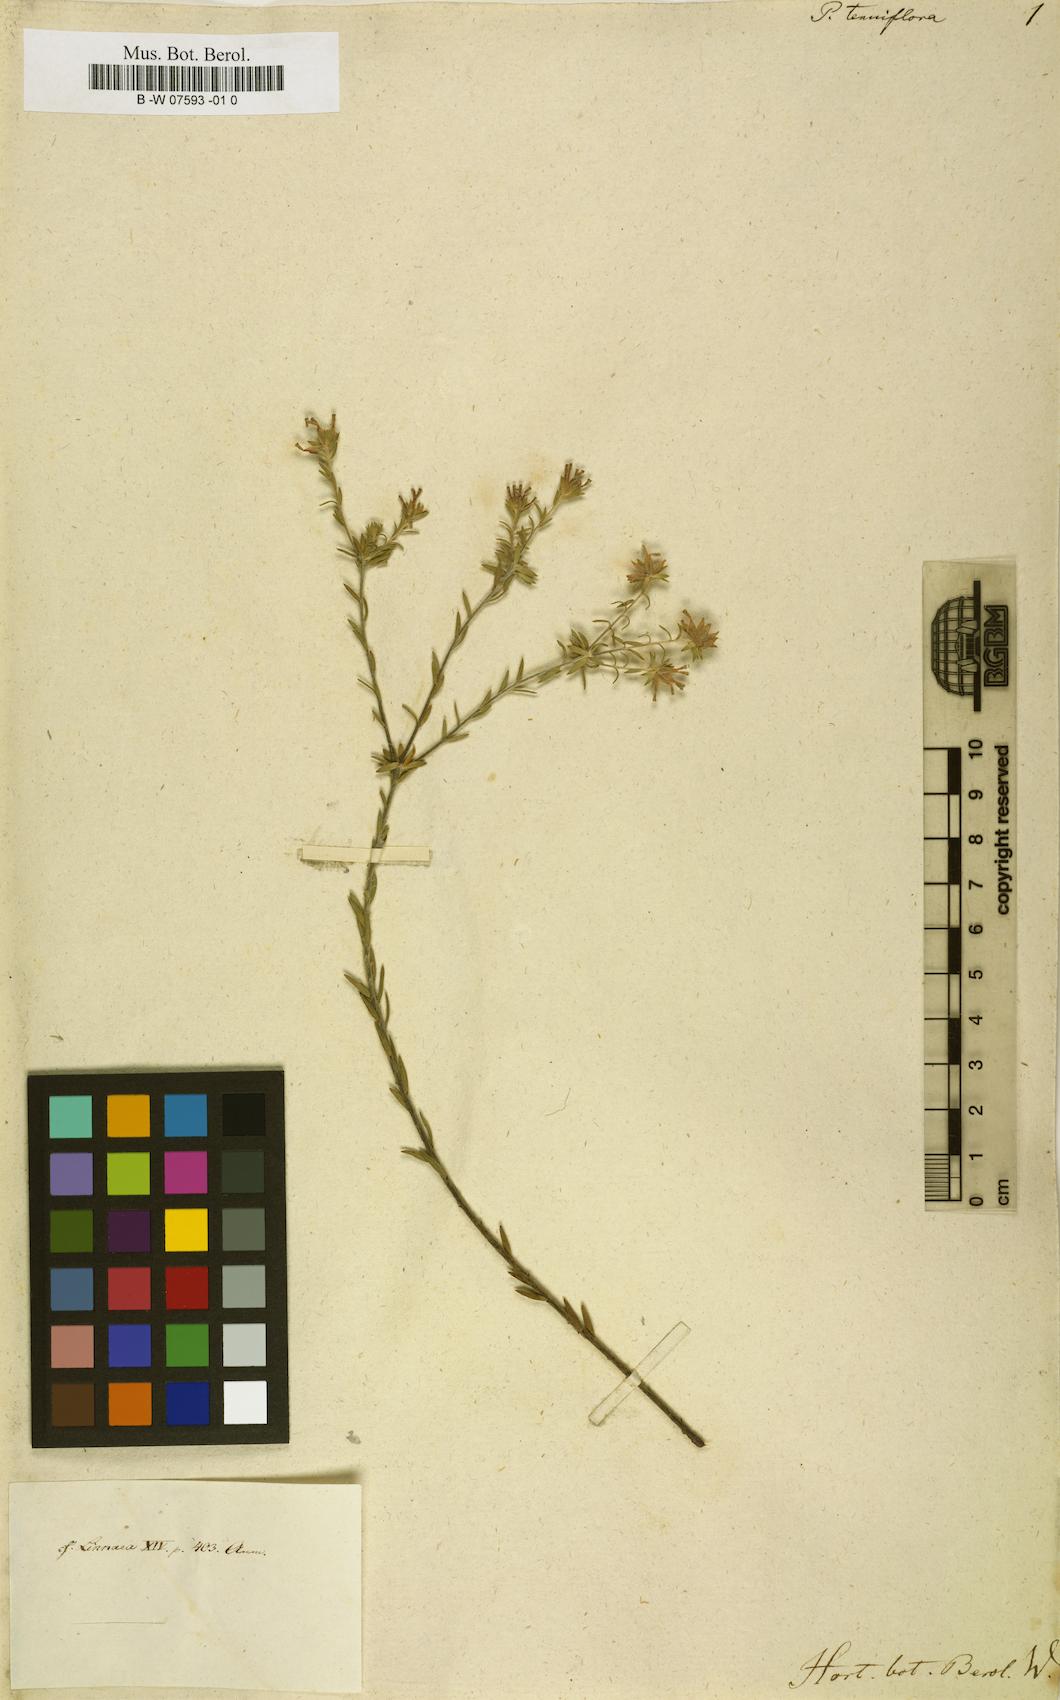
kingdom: Plantae
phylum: Tracheophyta
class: Magnoliopsida
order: Malvales
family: Thymelaeaceae
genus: Gnidia
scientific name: Gnidia laxa
